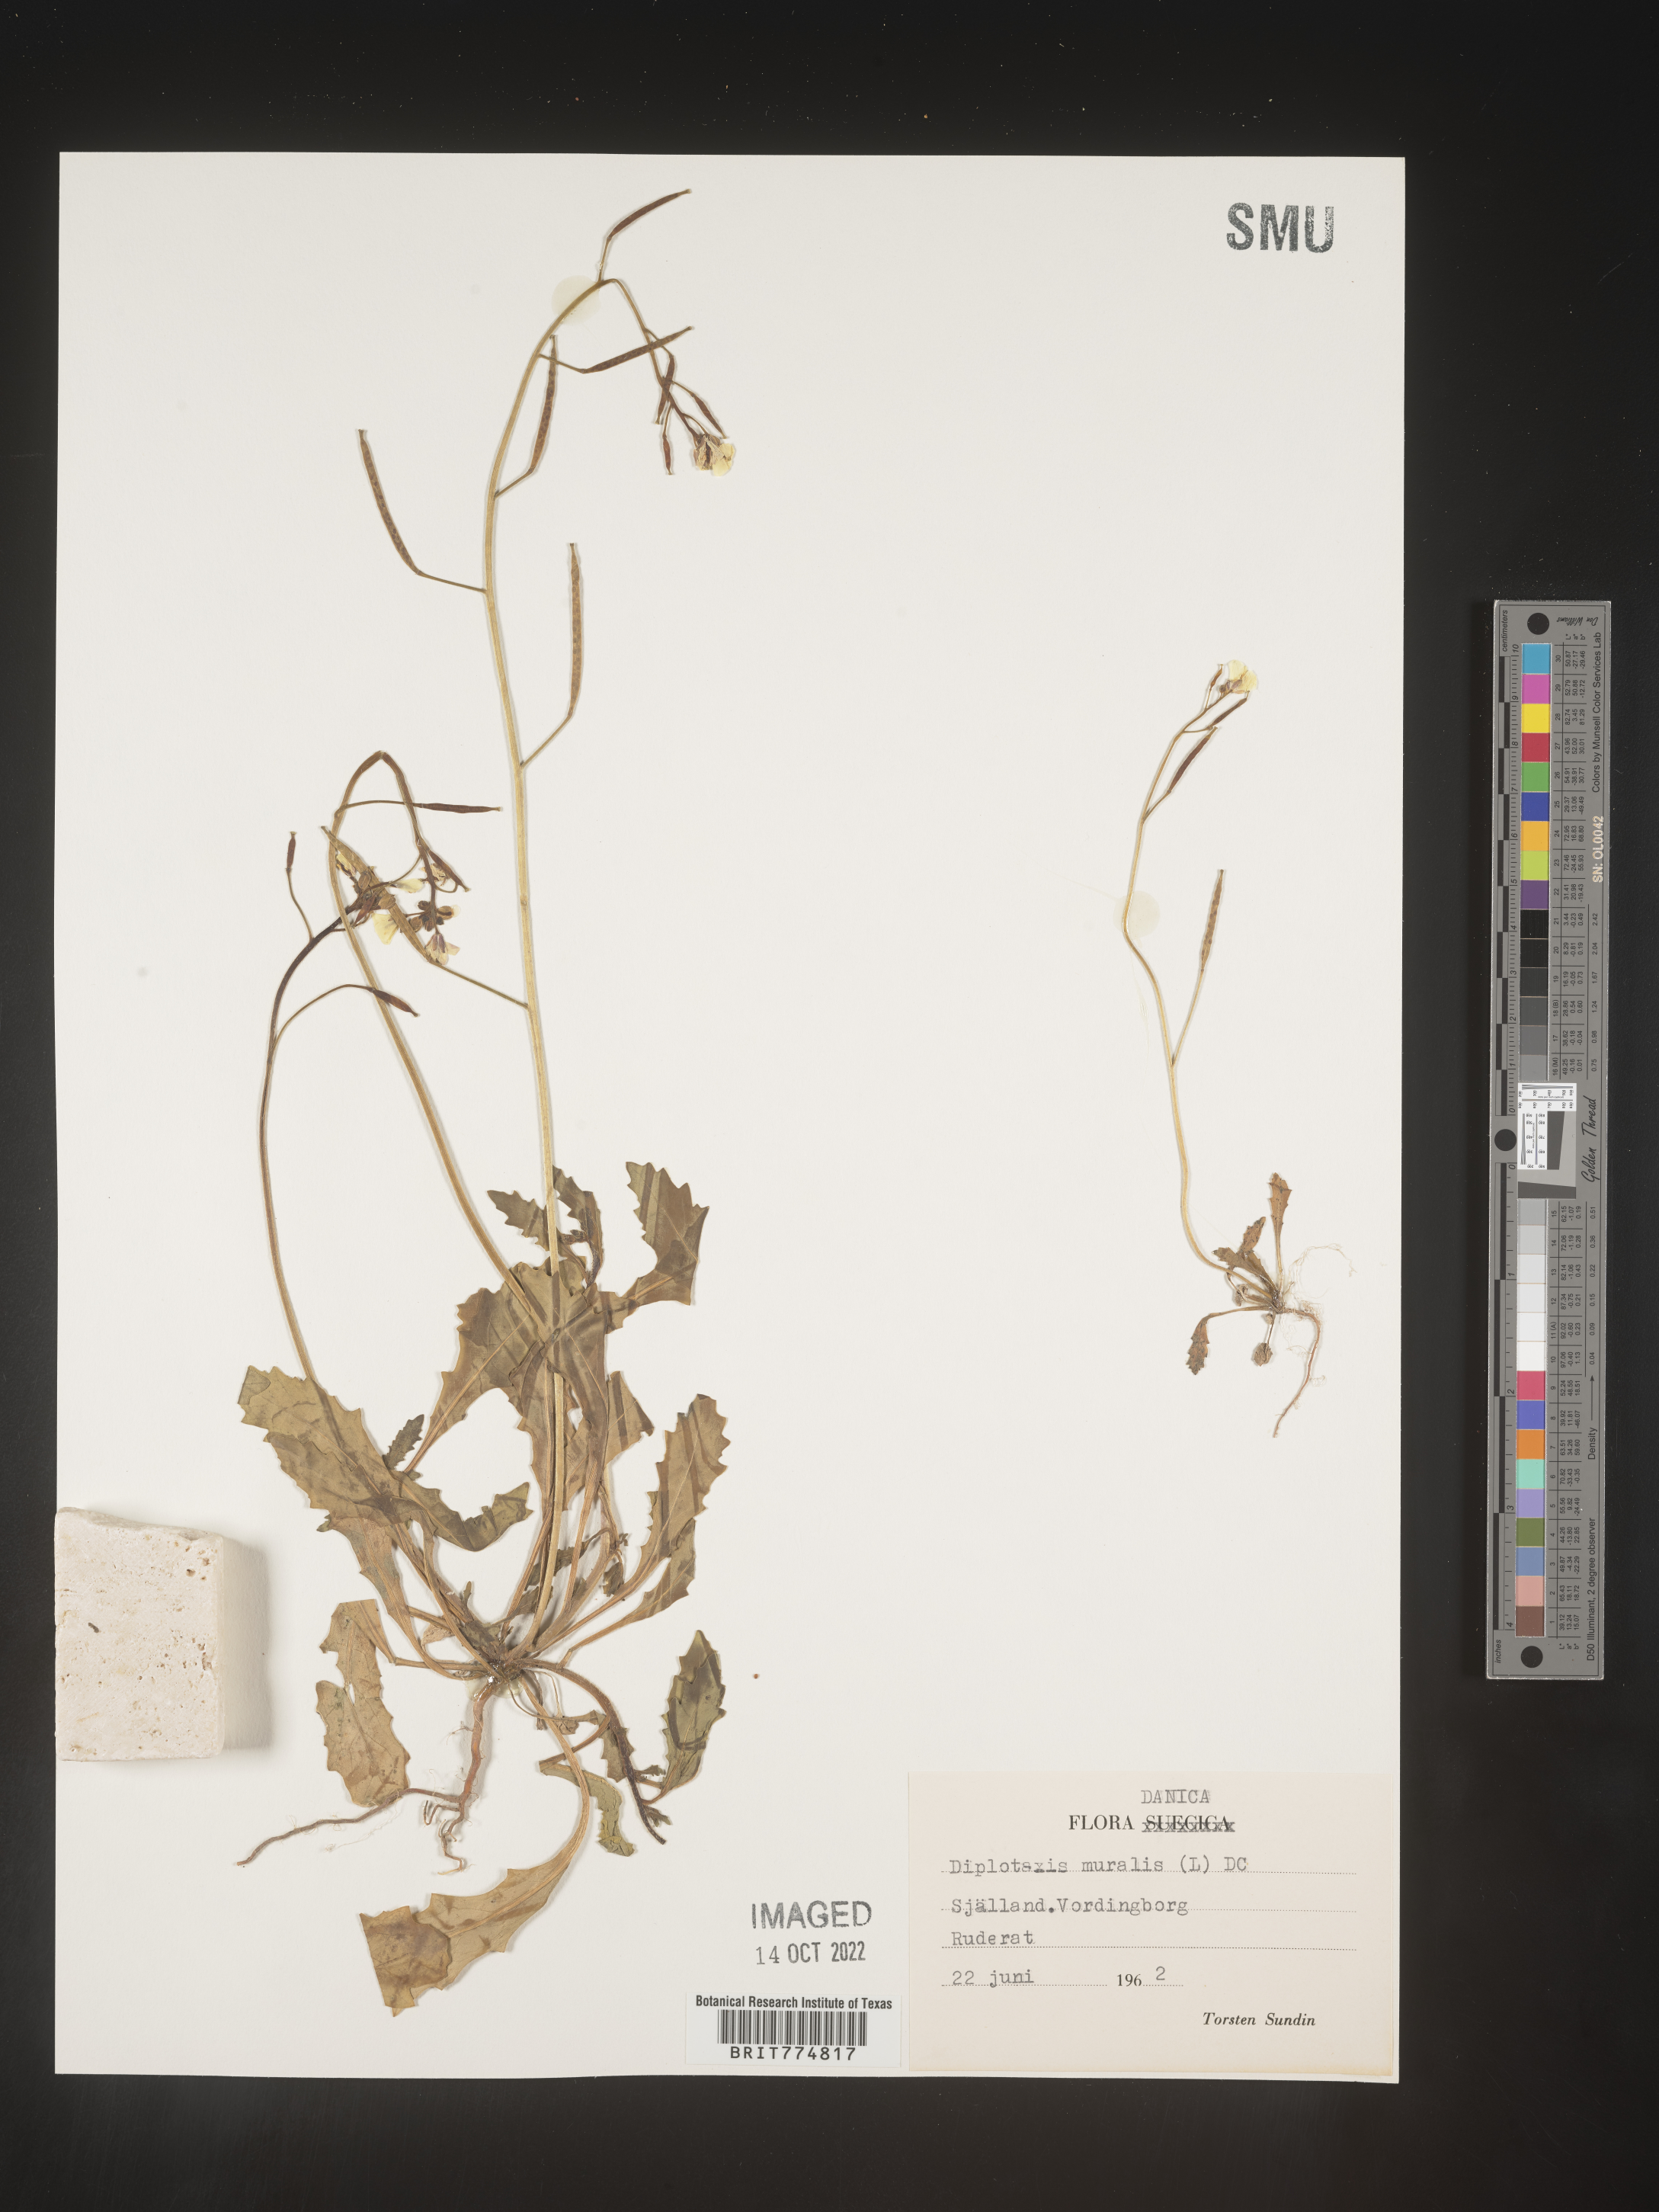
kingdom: Plantae
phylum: Tracheophyta
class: Magnoliopsida
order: Brassicales
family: Brassicaceae
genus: Diplotaxis
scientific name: Diplotaxis
